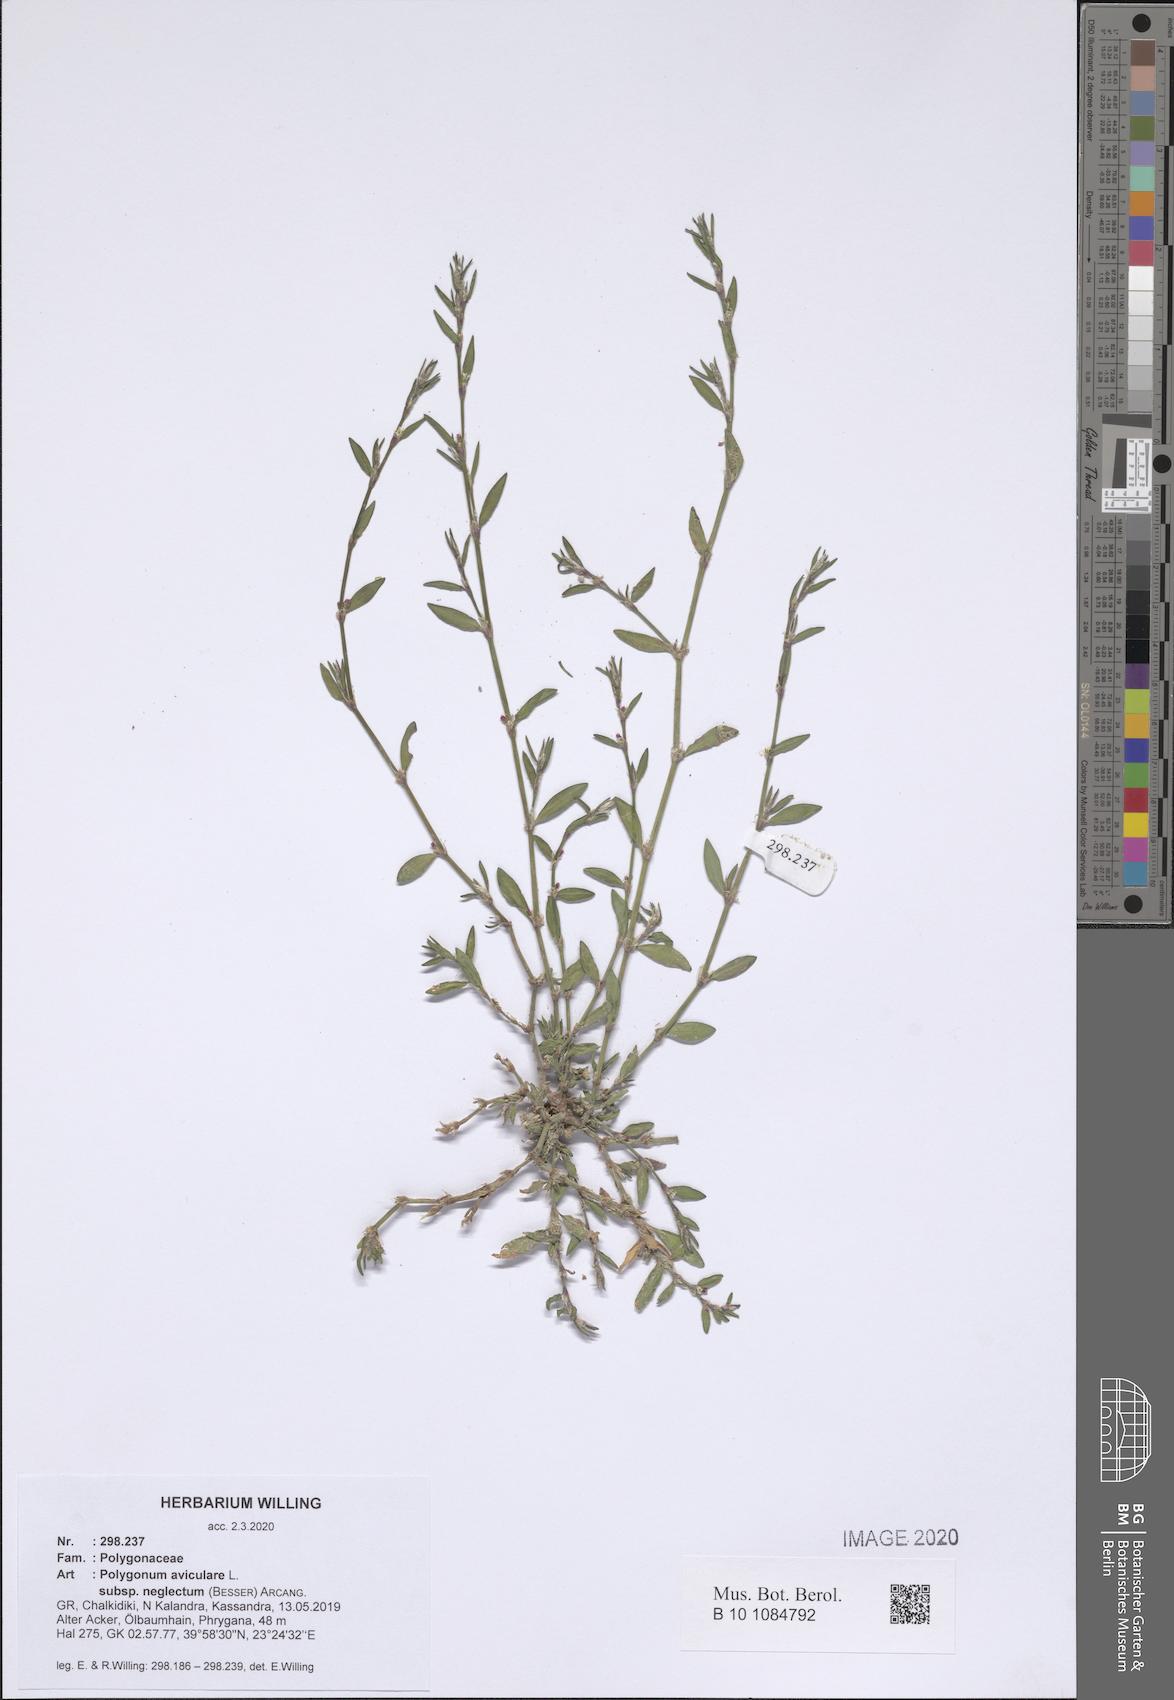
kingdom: Plantae
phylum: Tracheophyta
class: Magnoliopsida
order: Caryophyllales
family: Polygonaceae
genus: Polygonum
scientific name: Polygonum aviculare
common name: Prostrate knotweed
